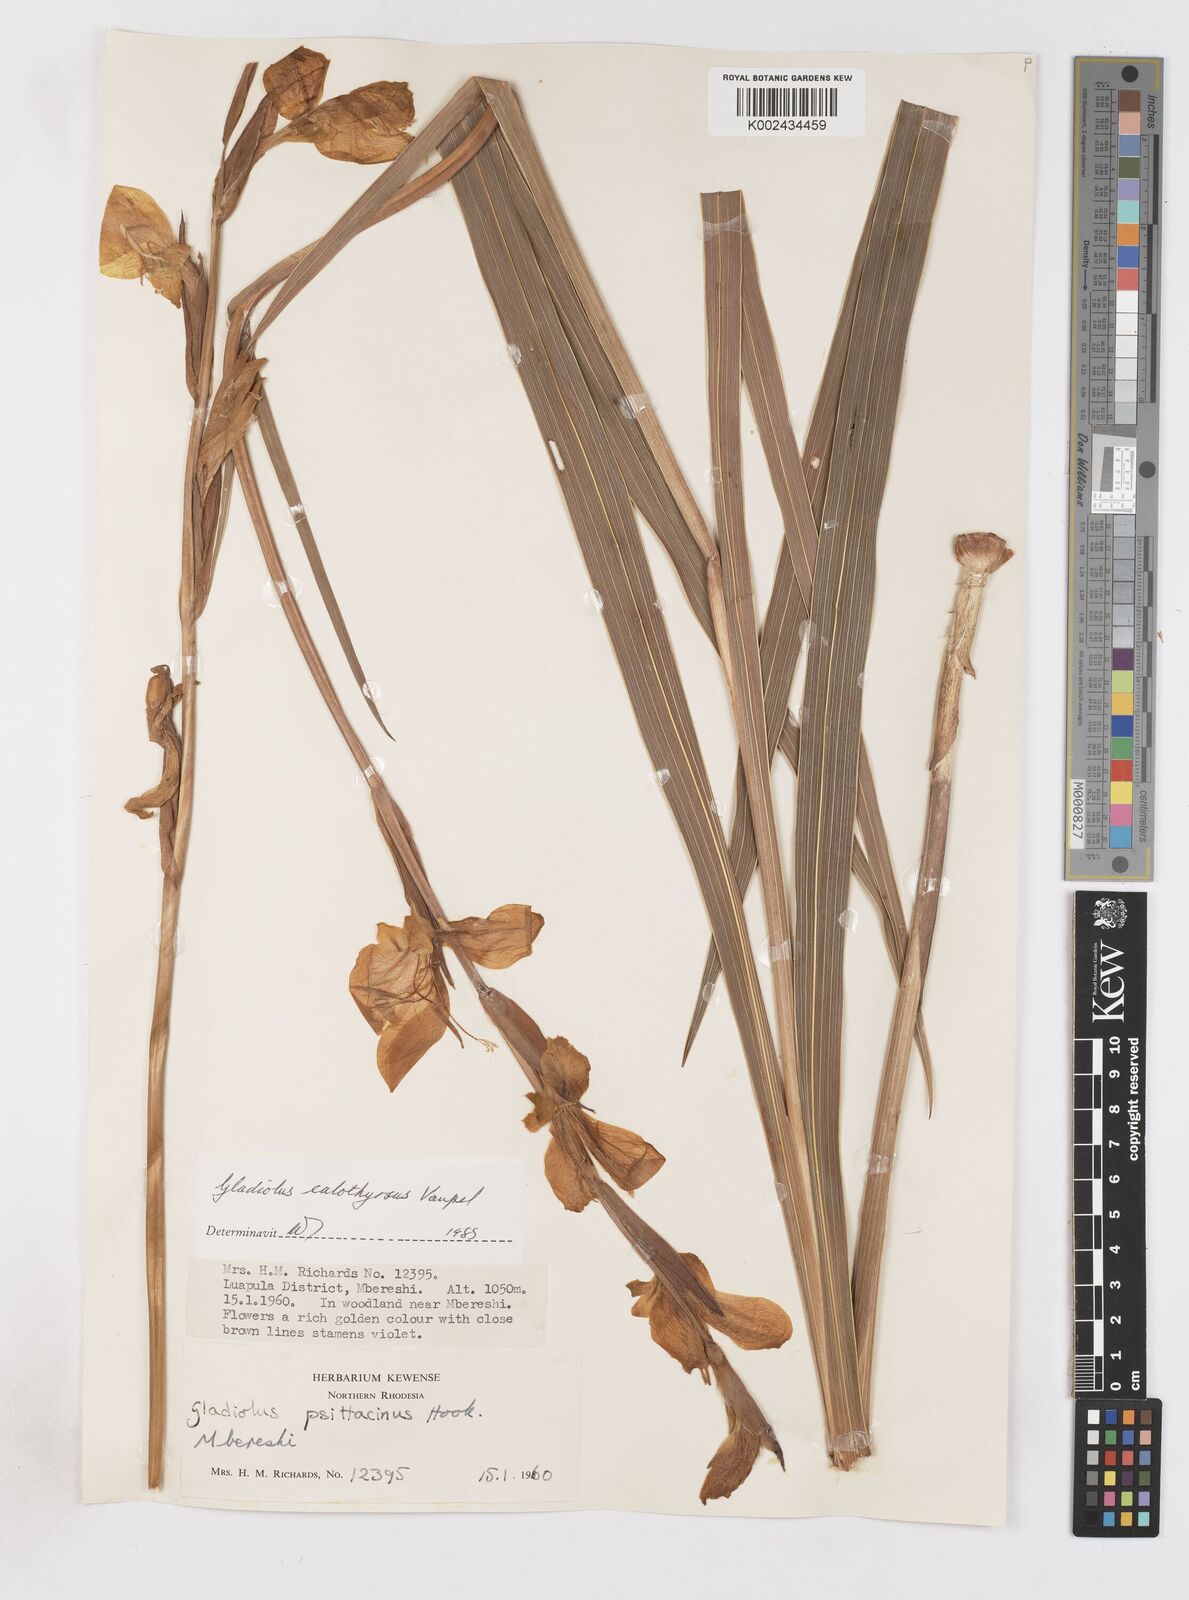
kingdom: Plantae
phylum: Tracheophyta
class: Liliopsida
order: Asparagales
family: Iridaceae
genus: Gladiolus
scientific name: Gladiolus dalenii
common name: Cornflag
